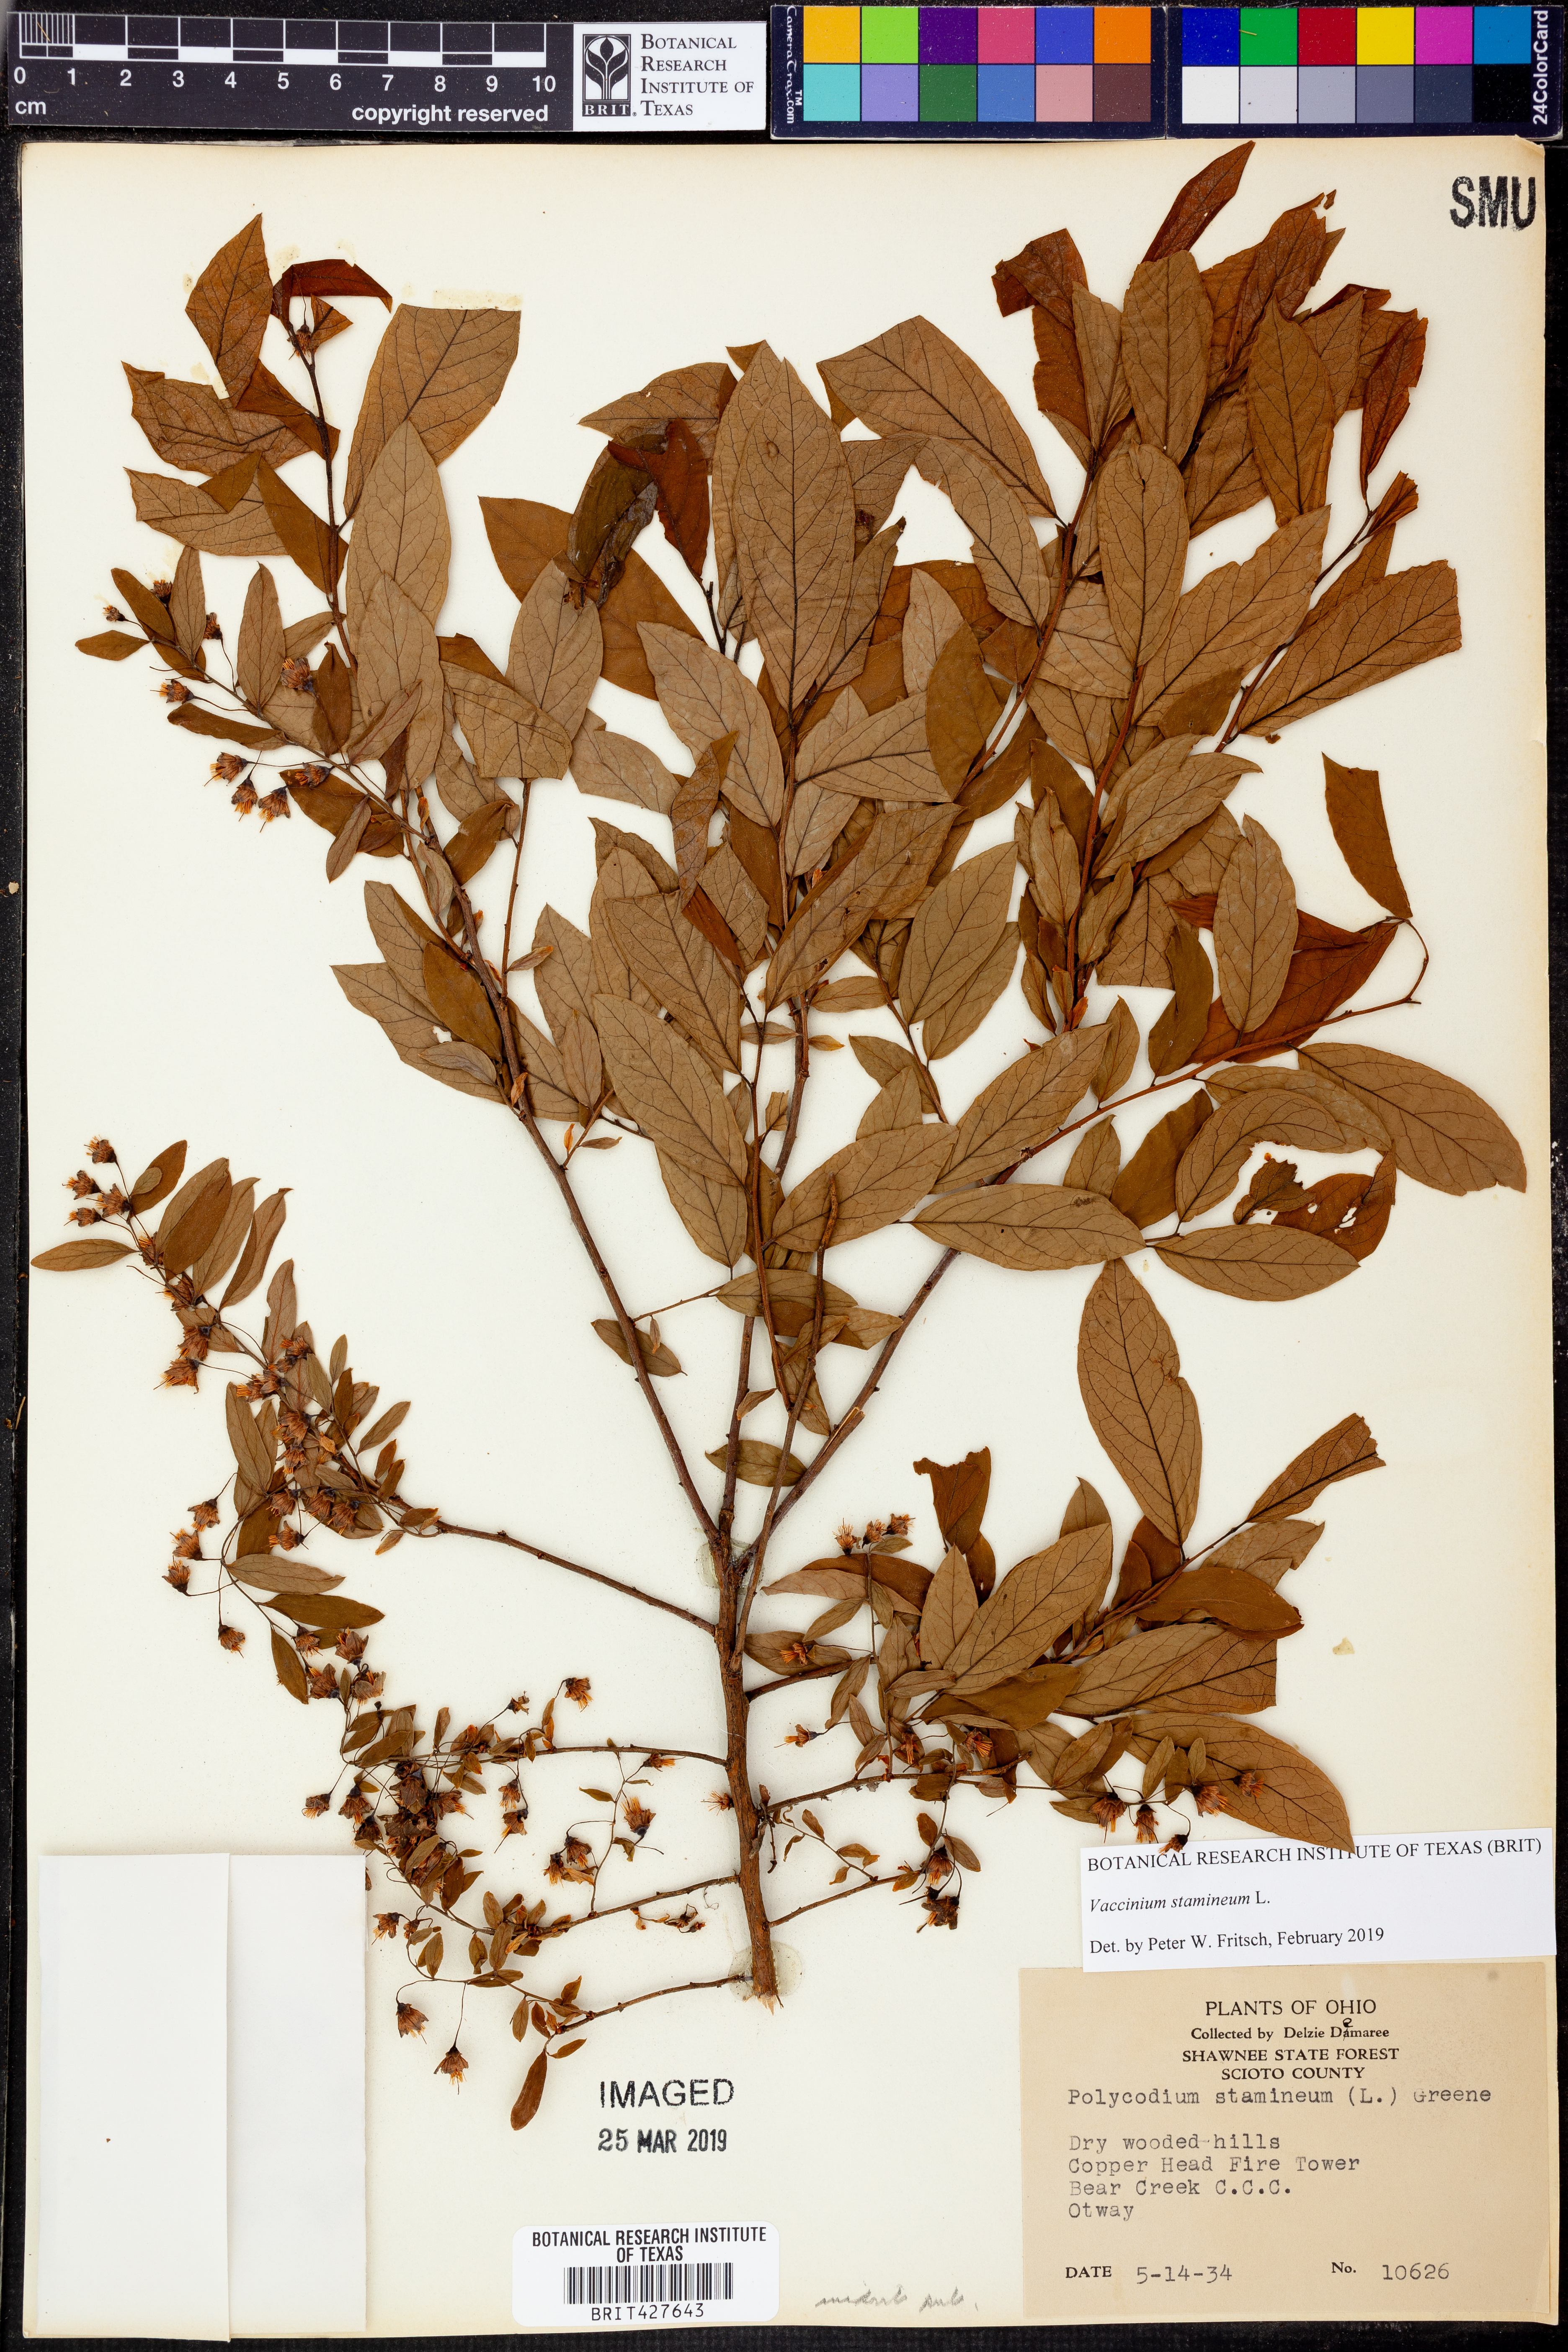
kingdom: Plantae
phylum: Tracheophyta
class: Magnoliopsida
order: Ericales
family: Ericaceae
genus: Vaccinium
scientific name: Vaccinium stamineum
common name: Deerberry
